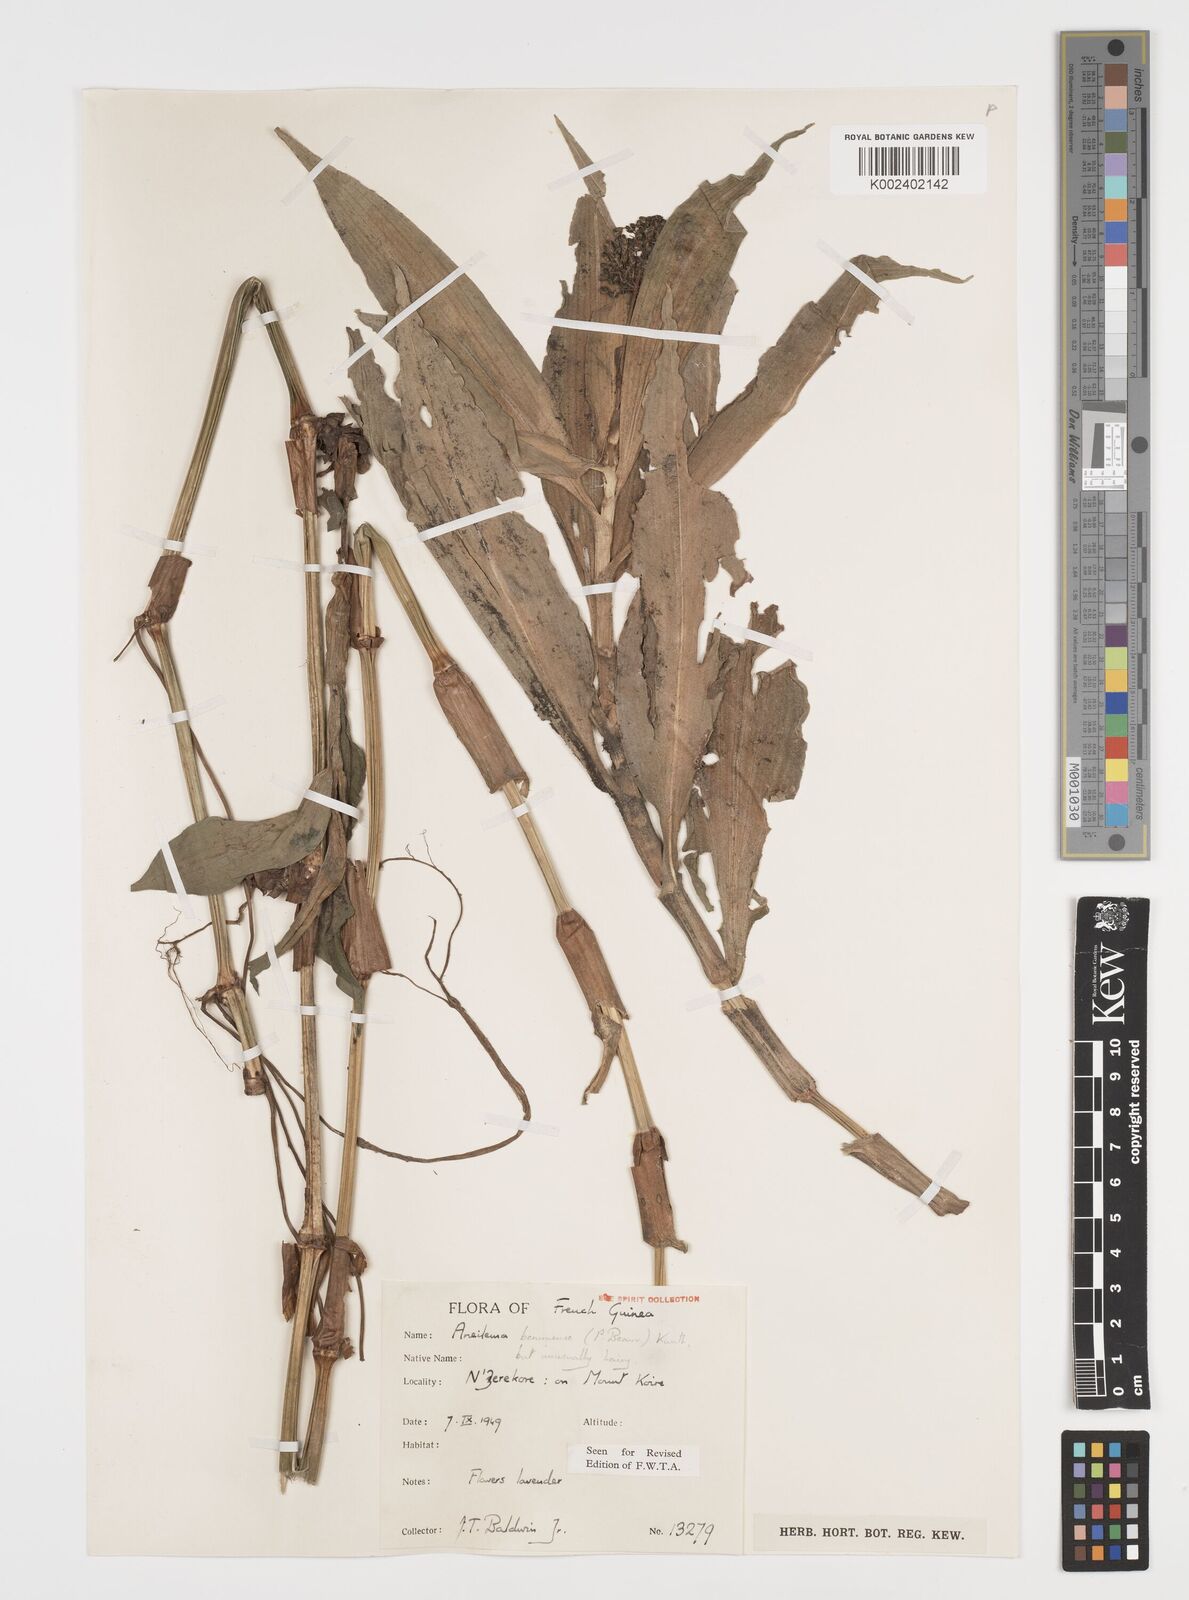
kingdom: Plantae
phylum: Tracheophyta
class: Liliopsida
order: Commelinales
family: Commelinaceae
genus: Aneilema
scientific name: Aneilema beniniense
